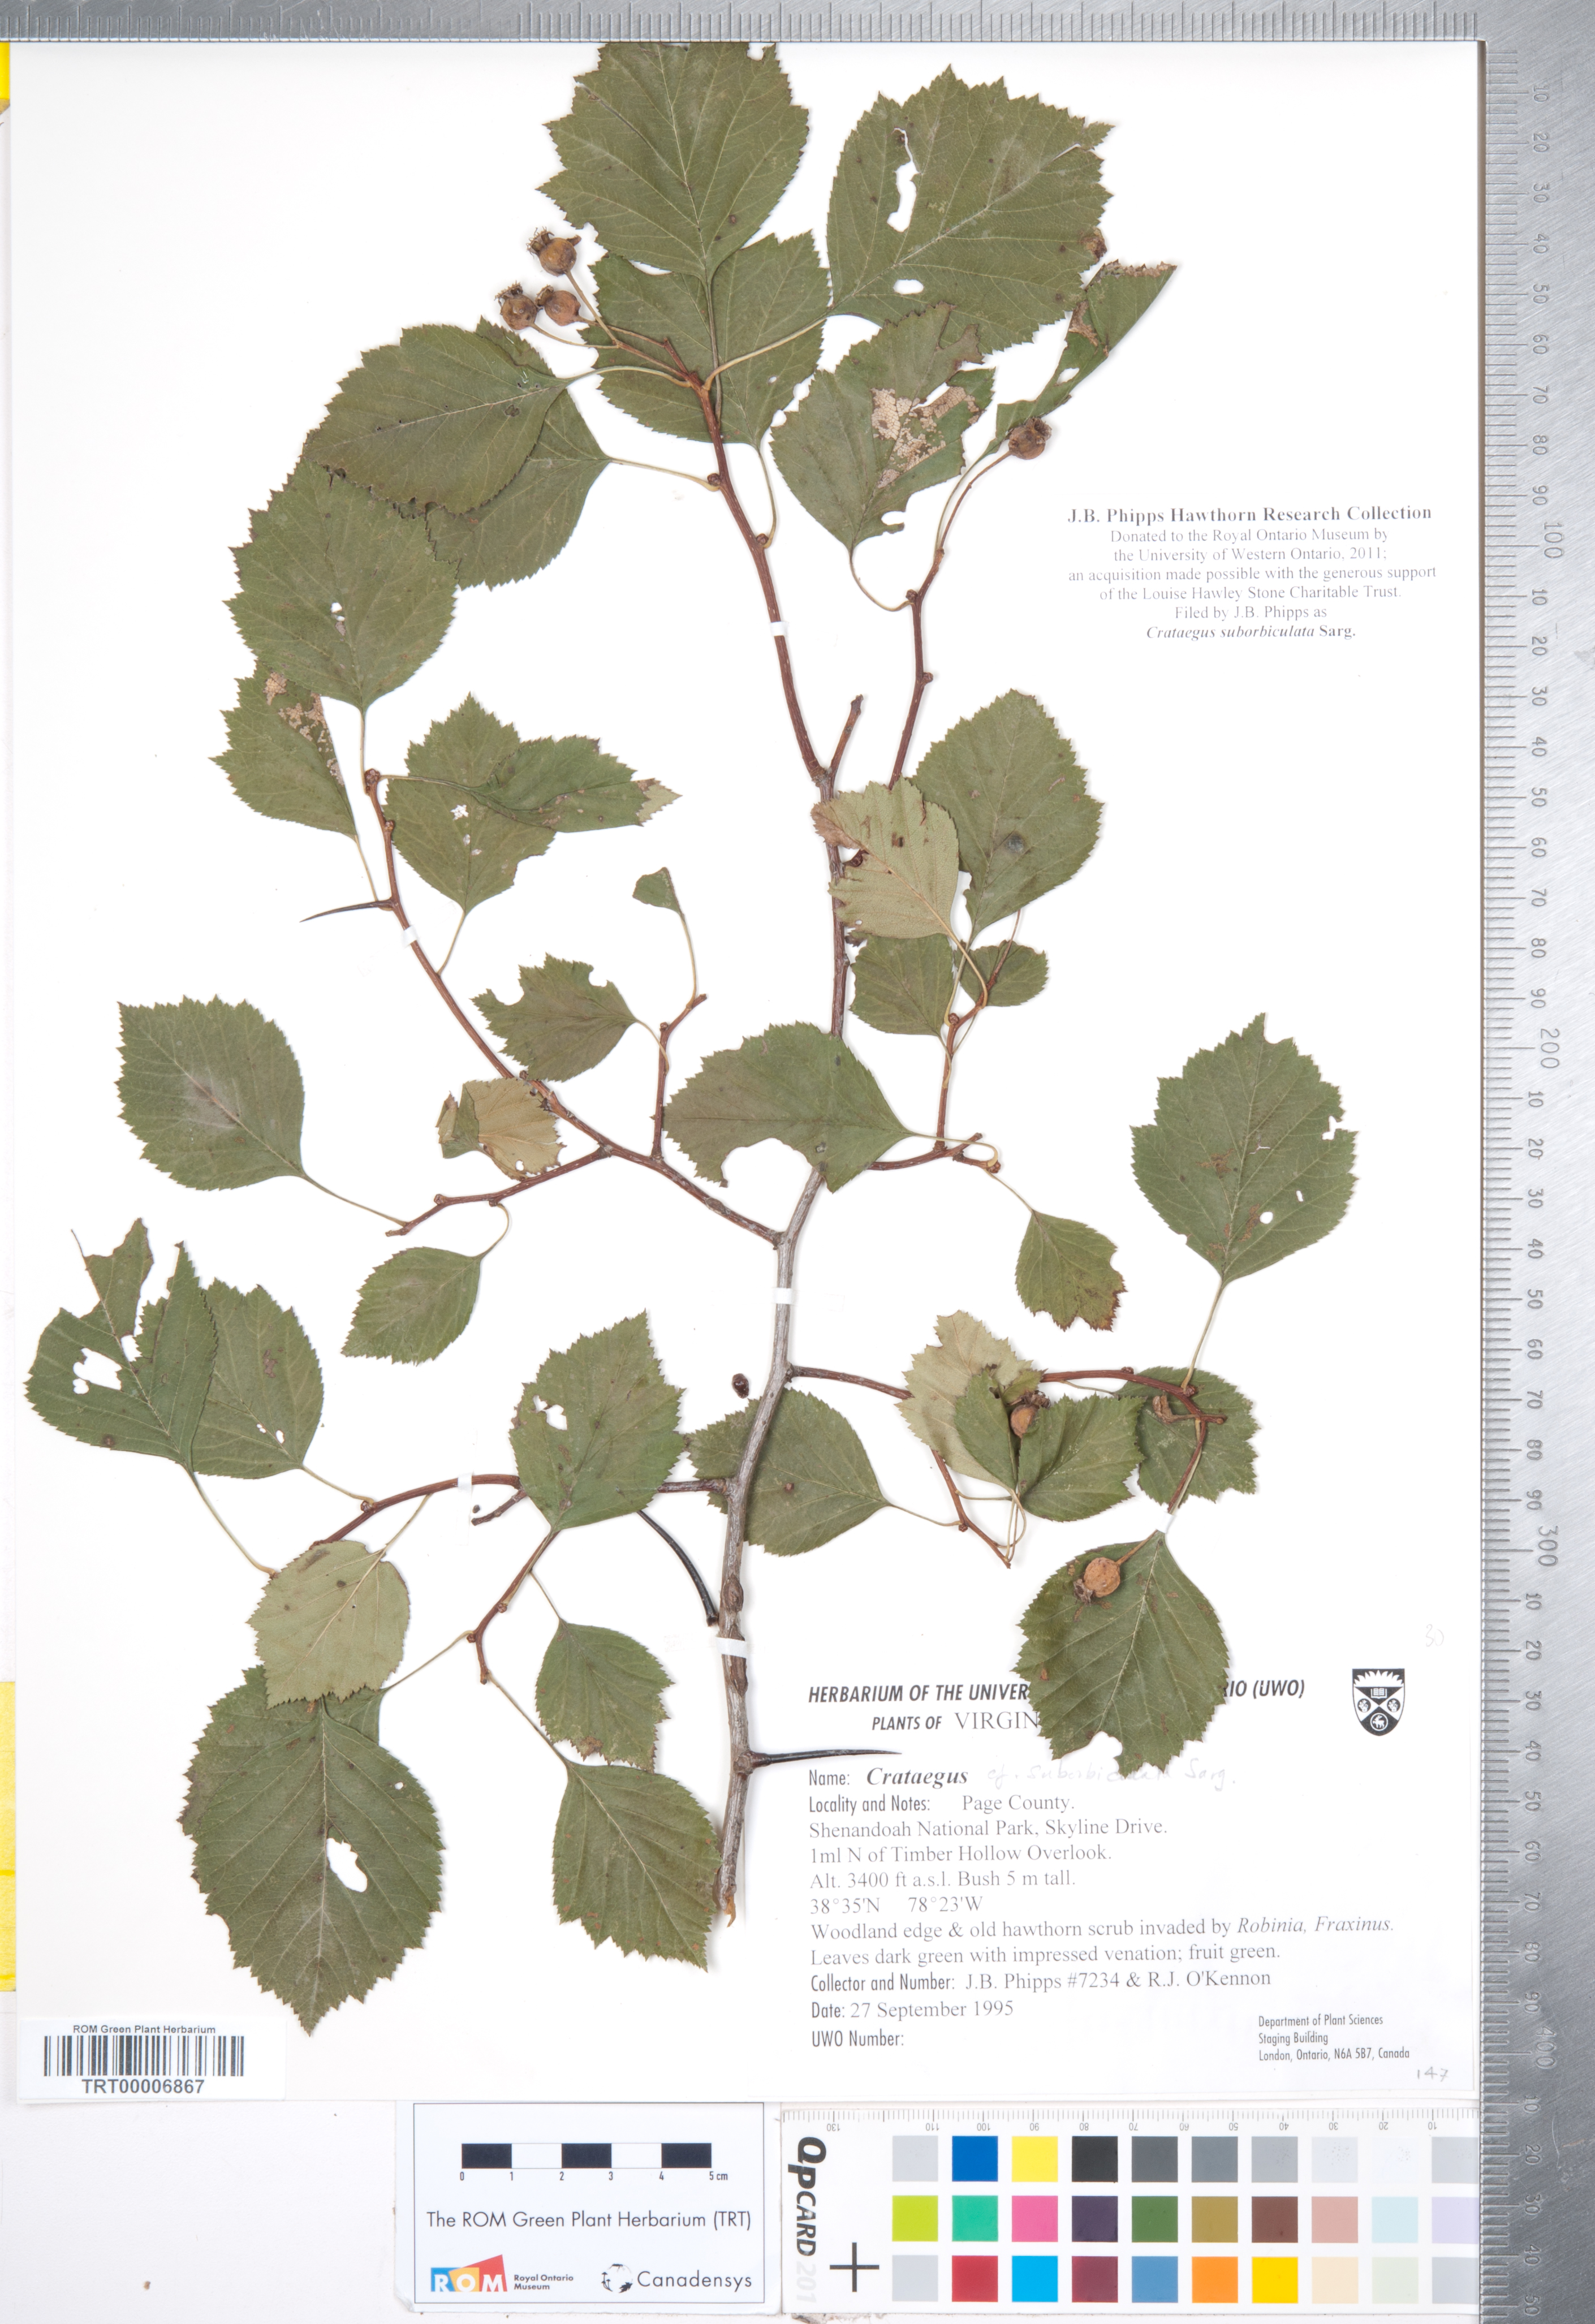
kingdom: Plantae
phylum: Tracheophyta
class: Magnoliopsida
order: Rosales
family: Rosaceae
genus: Crataegus
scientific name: Crataegus suborbiculata
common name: Caughnawaga hawthorn
